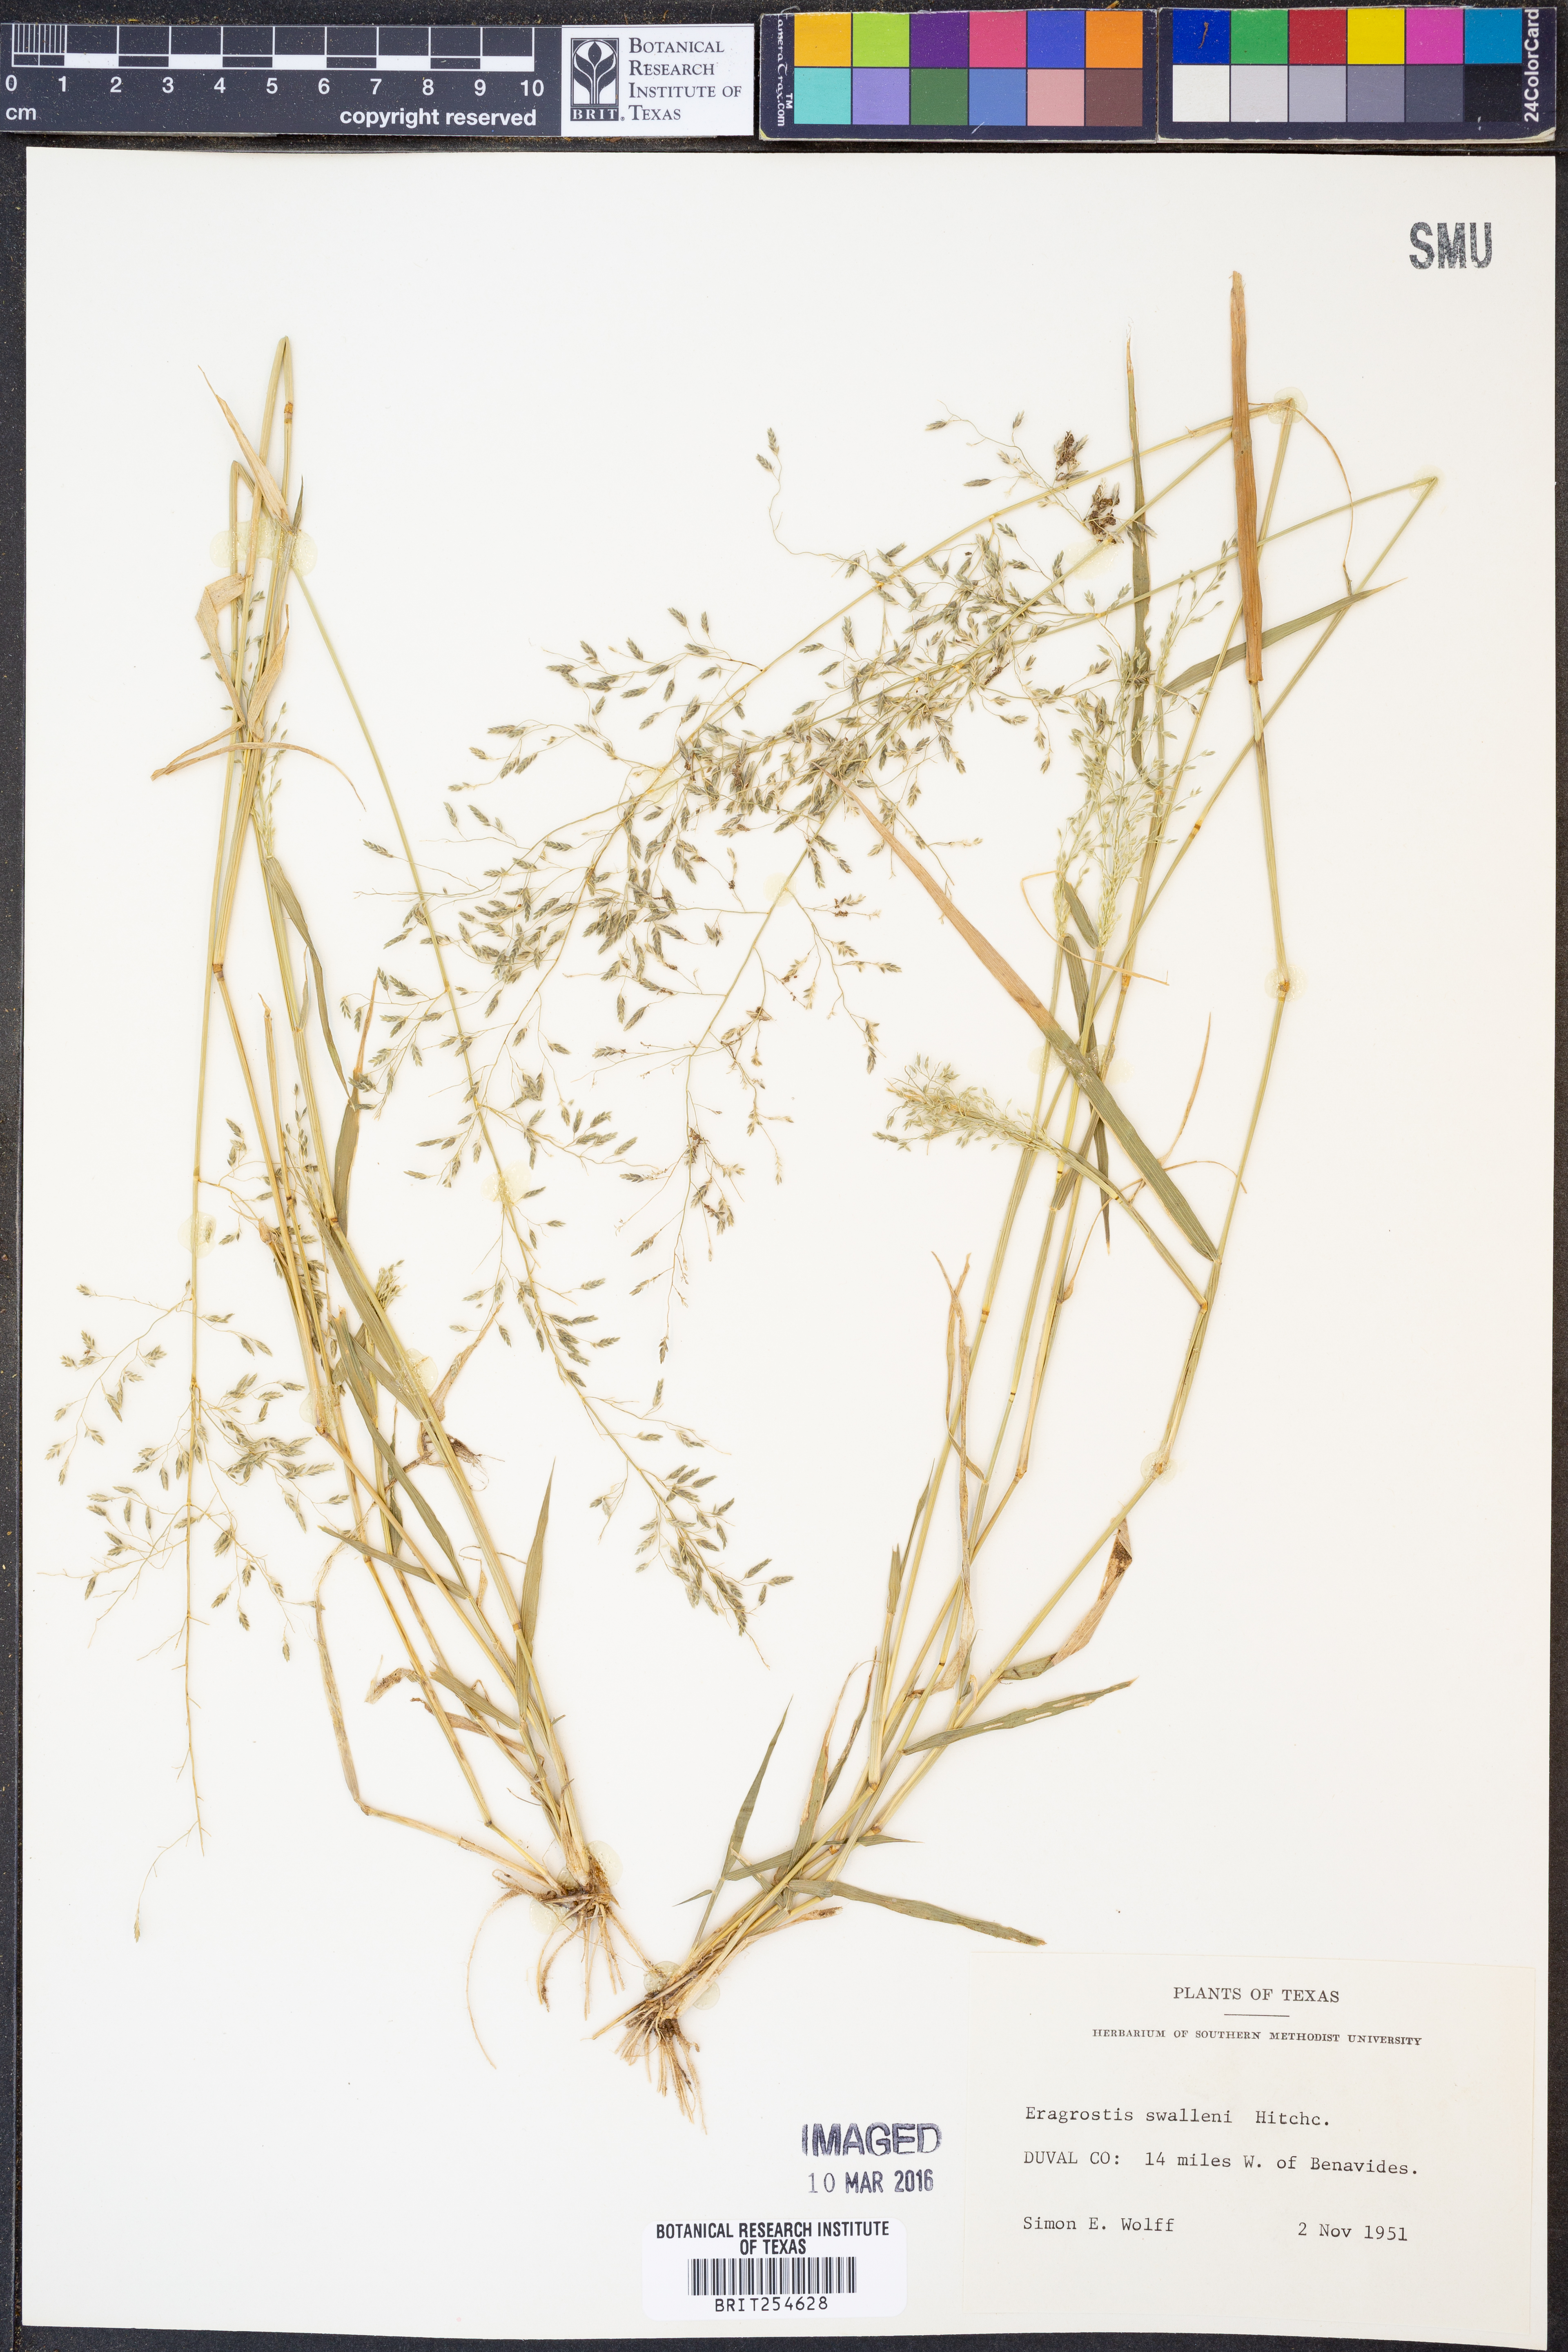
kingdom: Plantae
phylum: Tracheophyta
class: Liliopsida
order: Poales
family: Poaceae
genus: Eragrostis
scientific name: Eragrostis swallenii
